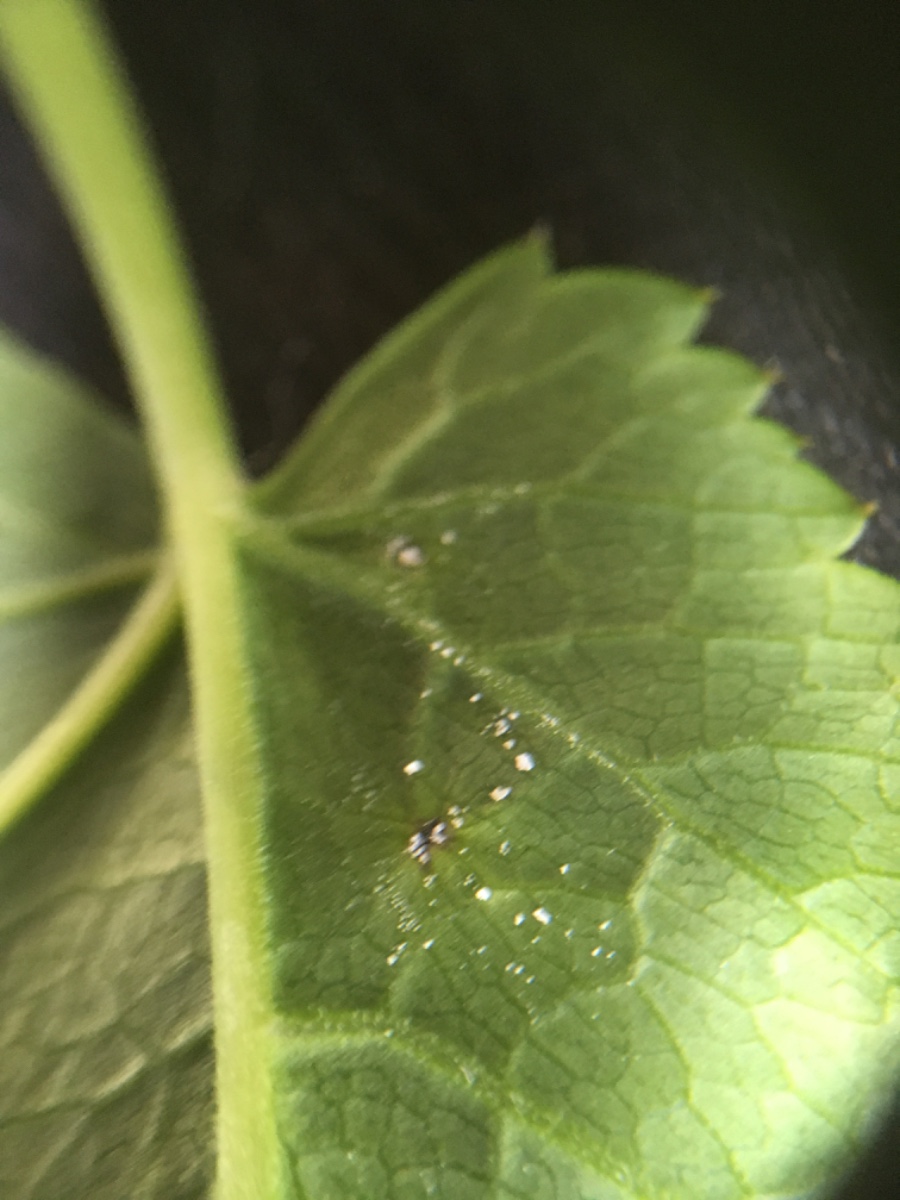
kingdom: Fungi
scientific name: Fungi
